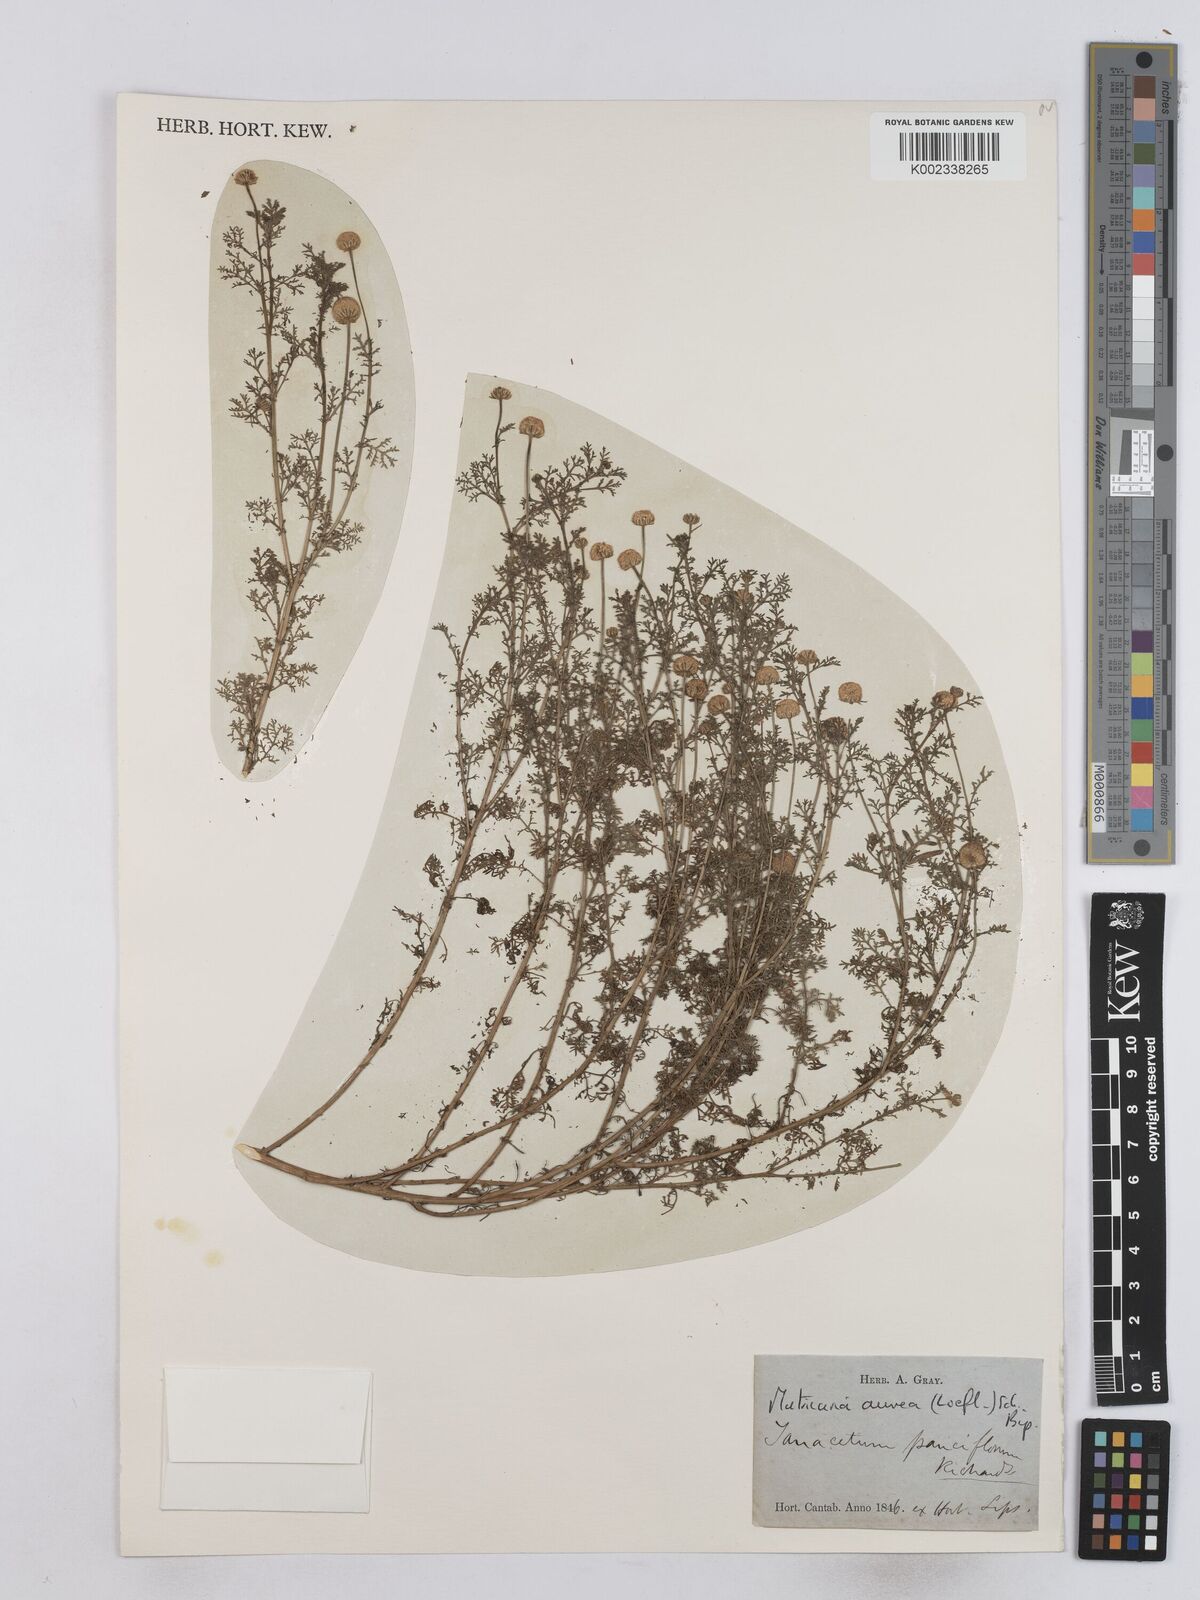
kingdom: Plantae
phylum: Tracheophyta
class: Magnoliopsida
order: Asterales
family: Asteraceae
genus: Matricaria
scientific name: Matricaria aurea
